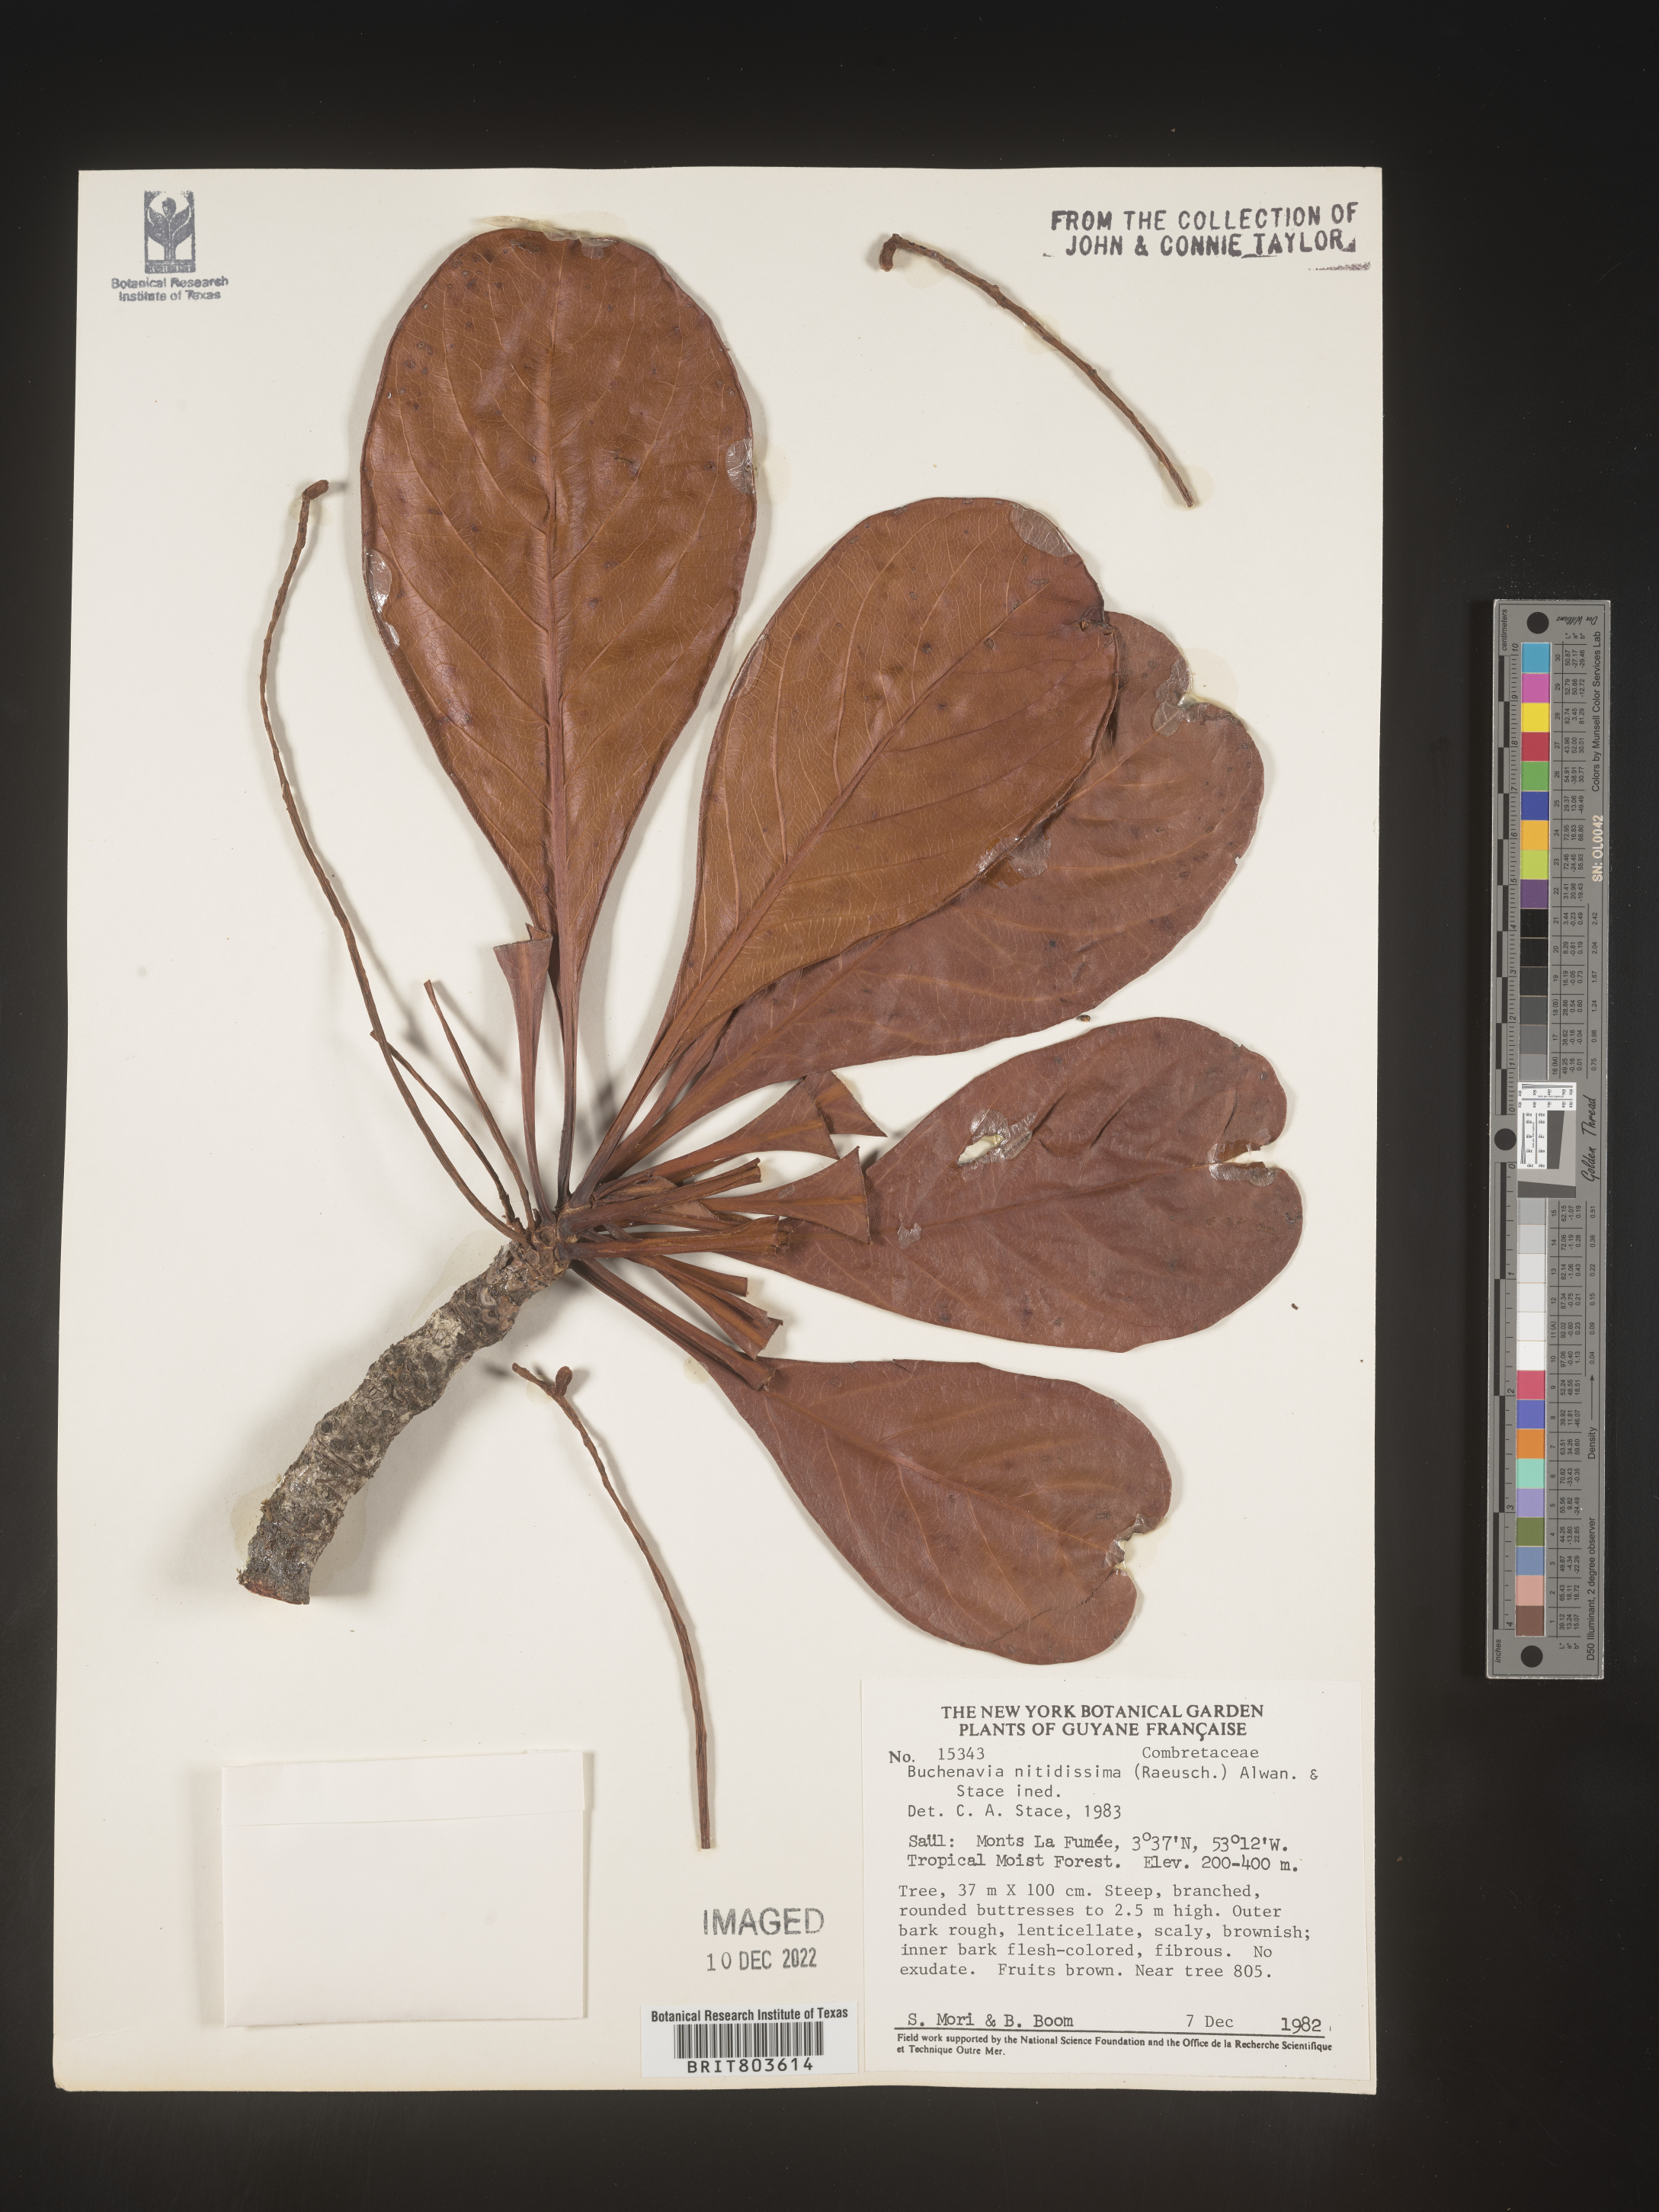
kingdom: Plantae
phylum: Tracheophyta
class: Magnoliopsida
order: Myrtales
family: Combretaceae
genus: Terminalia
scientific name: Terminalia
